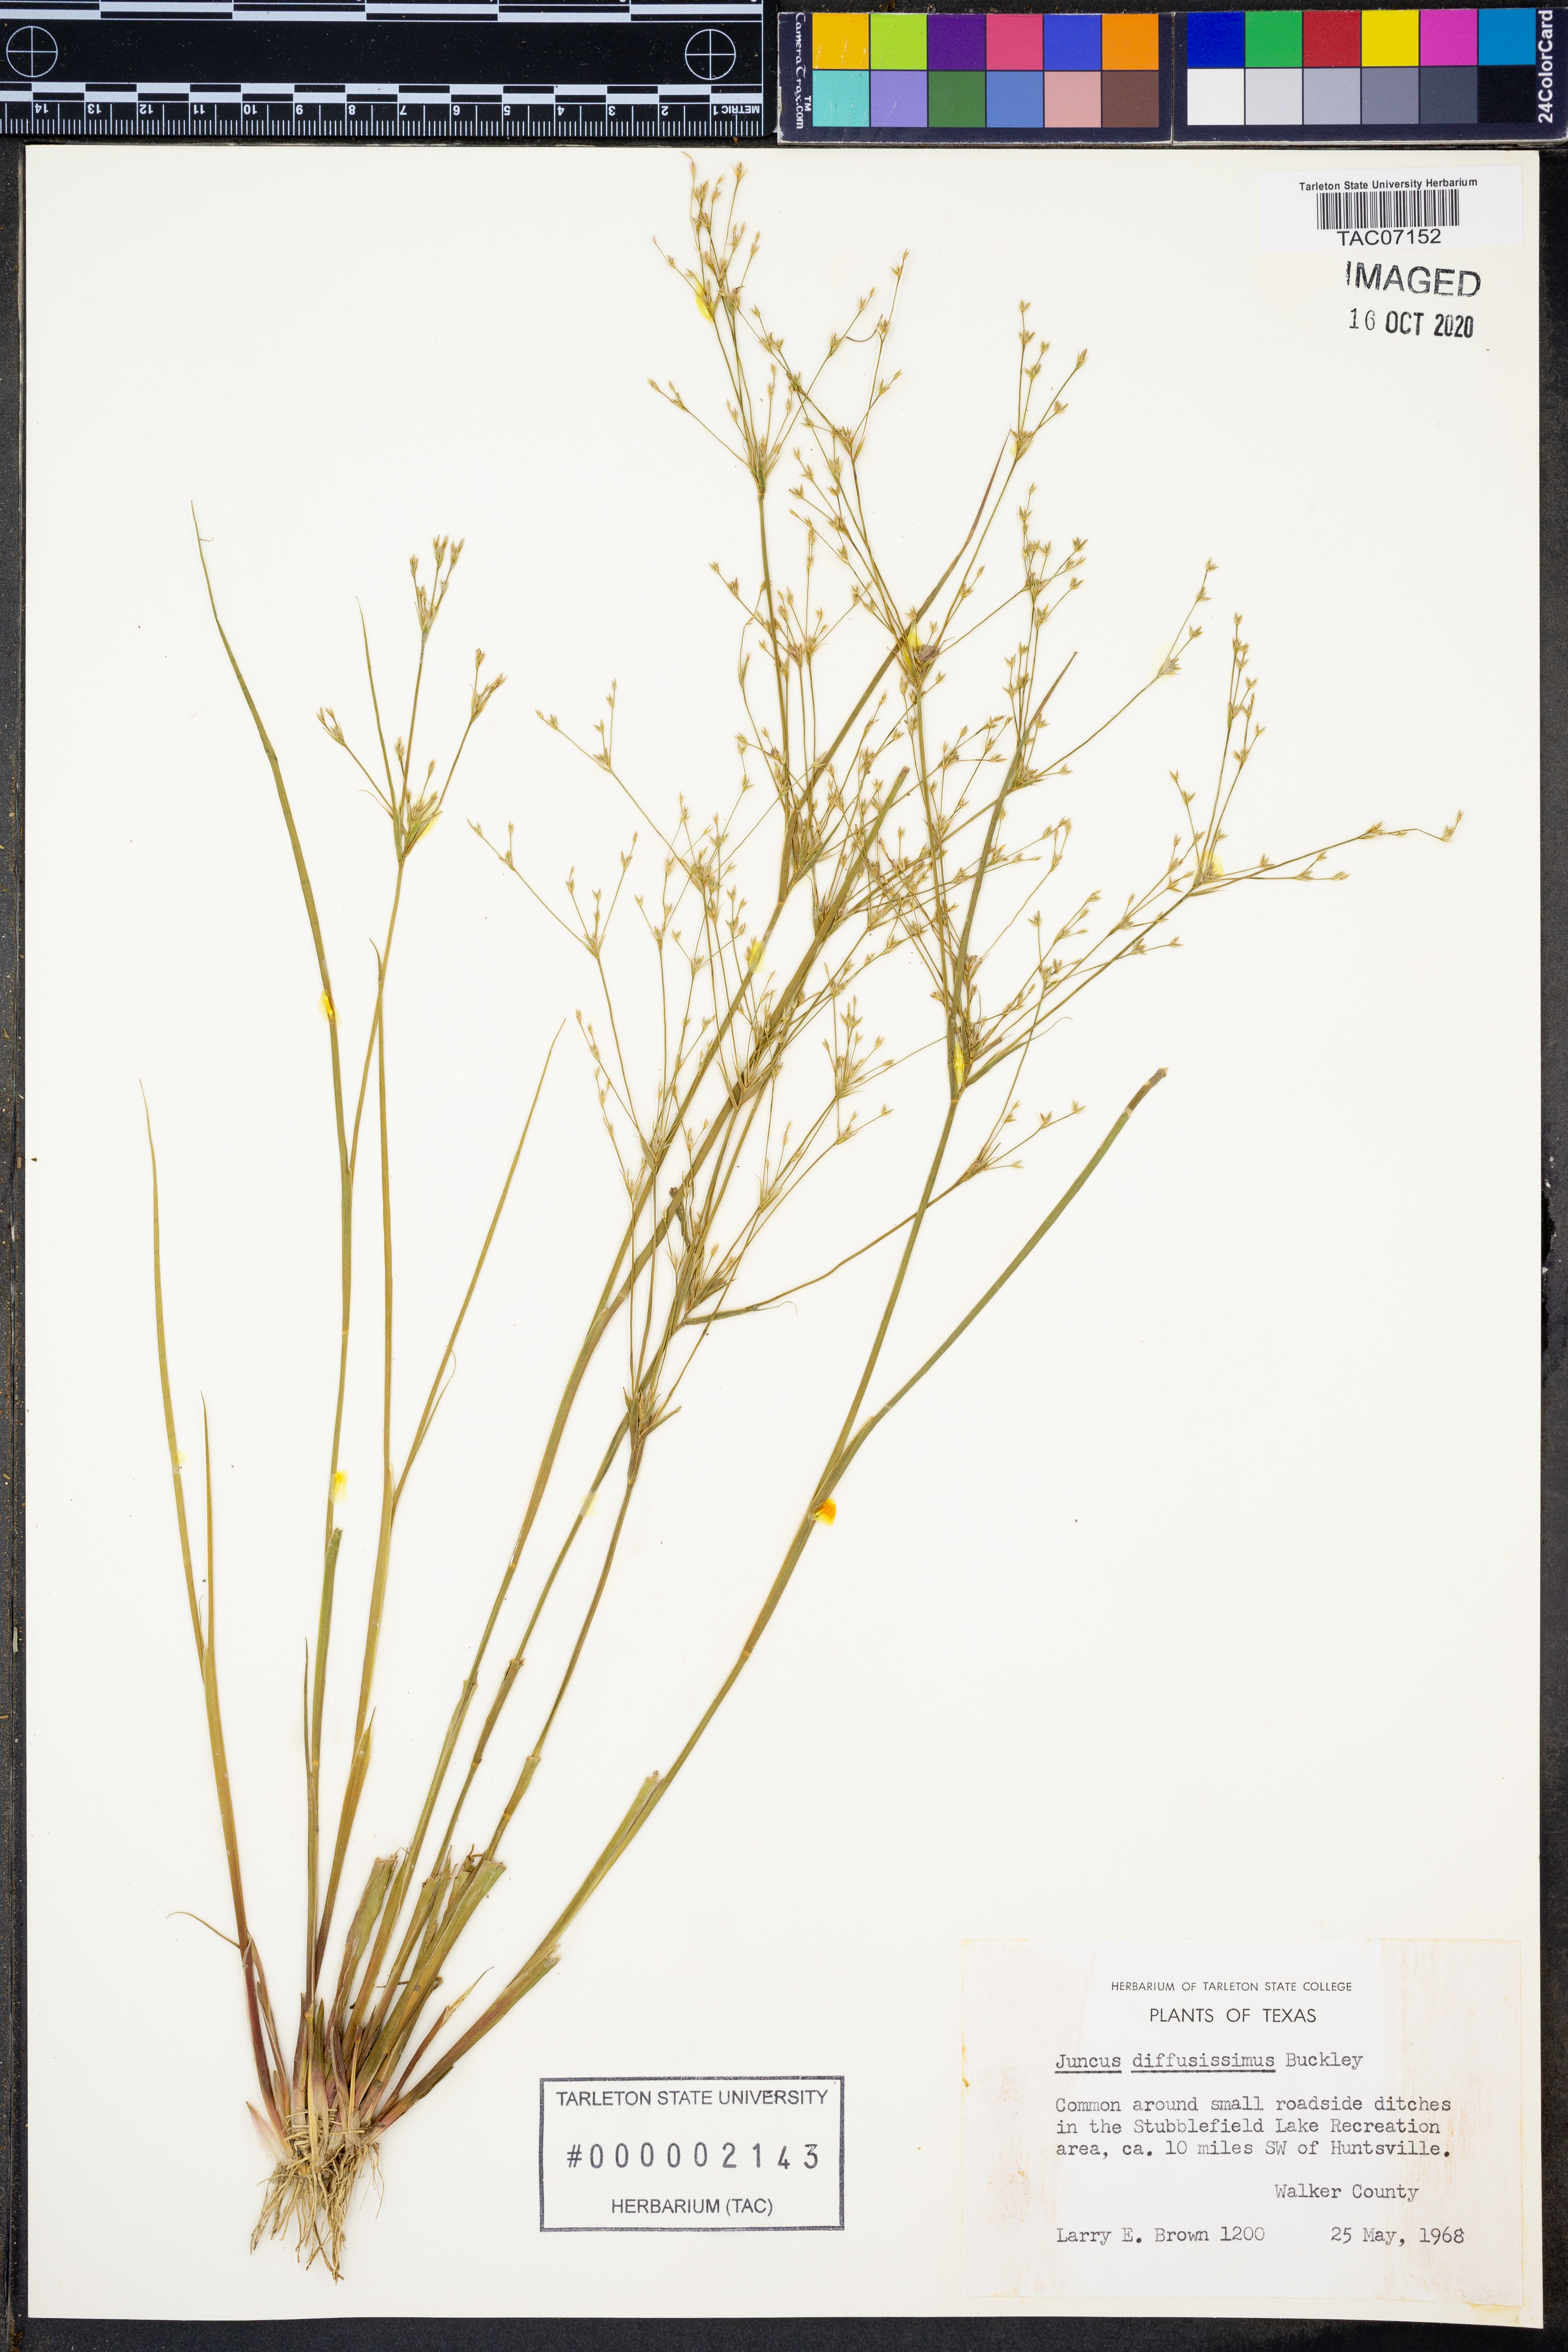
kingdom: Plantae
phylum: Tracheophyta
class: Liliopsida
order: Poales
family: Juncaceae
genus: Juncus
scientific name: Juncus diffusissimus
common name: Slimpod rush
